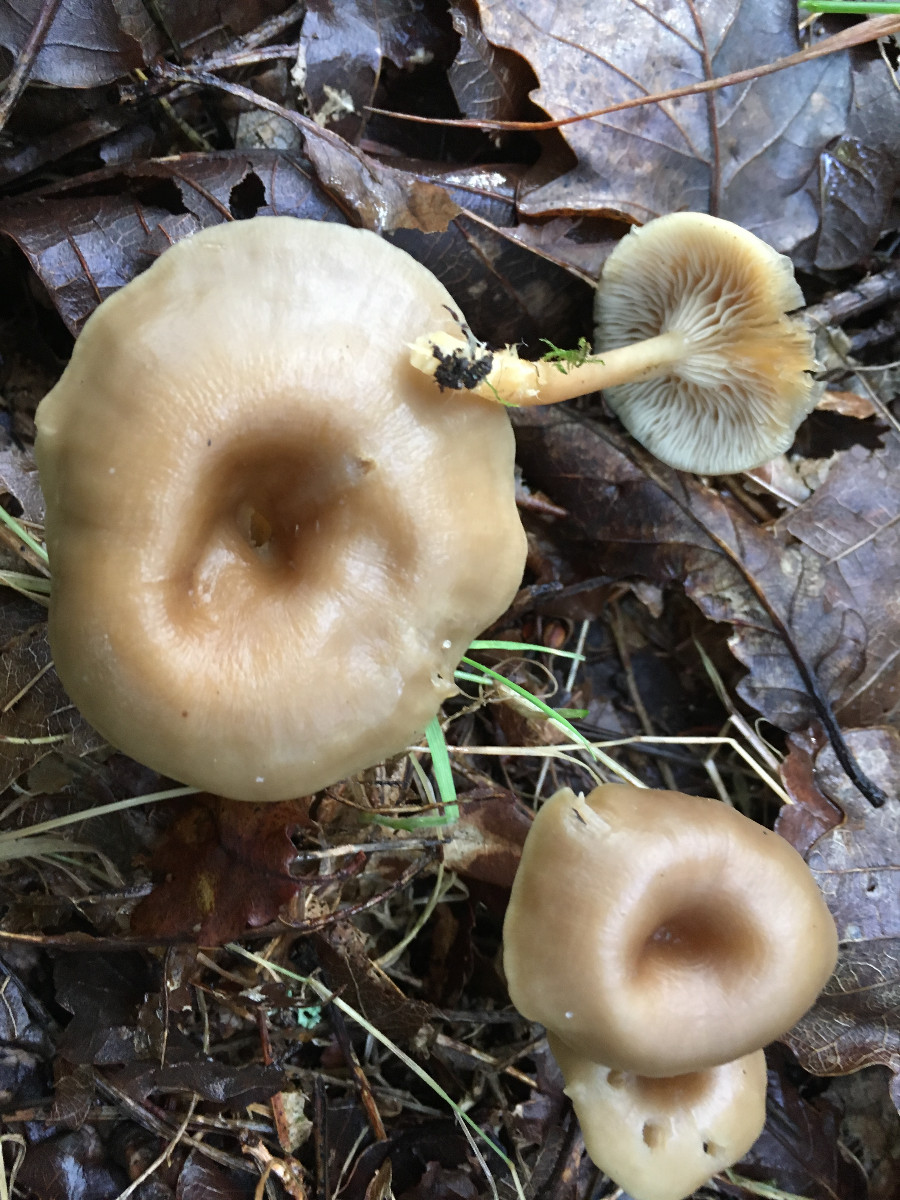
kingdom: Fungi
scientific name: Fungi
